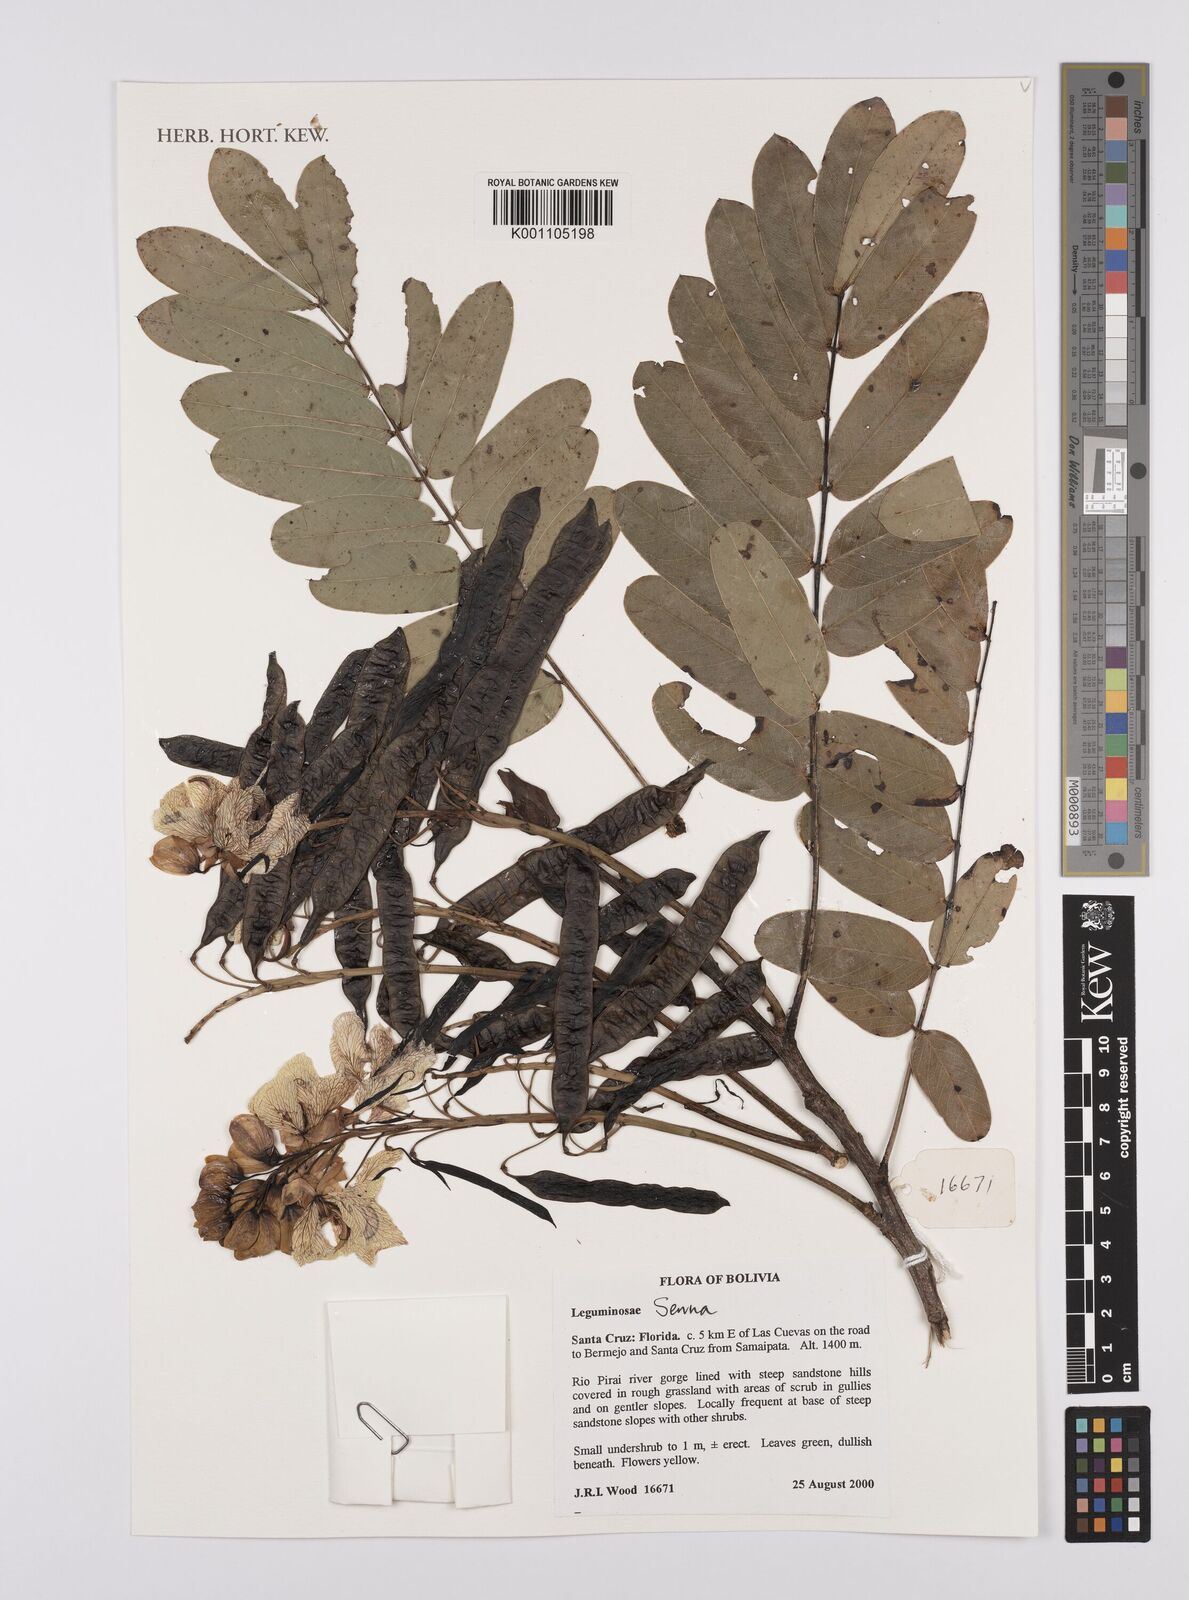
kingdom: Plantae
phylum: Tracheophyta
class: Magnoliopsida
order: Fabales
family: Fabaceae
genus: Senna
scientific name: Senna
